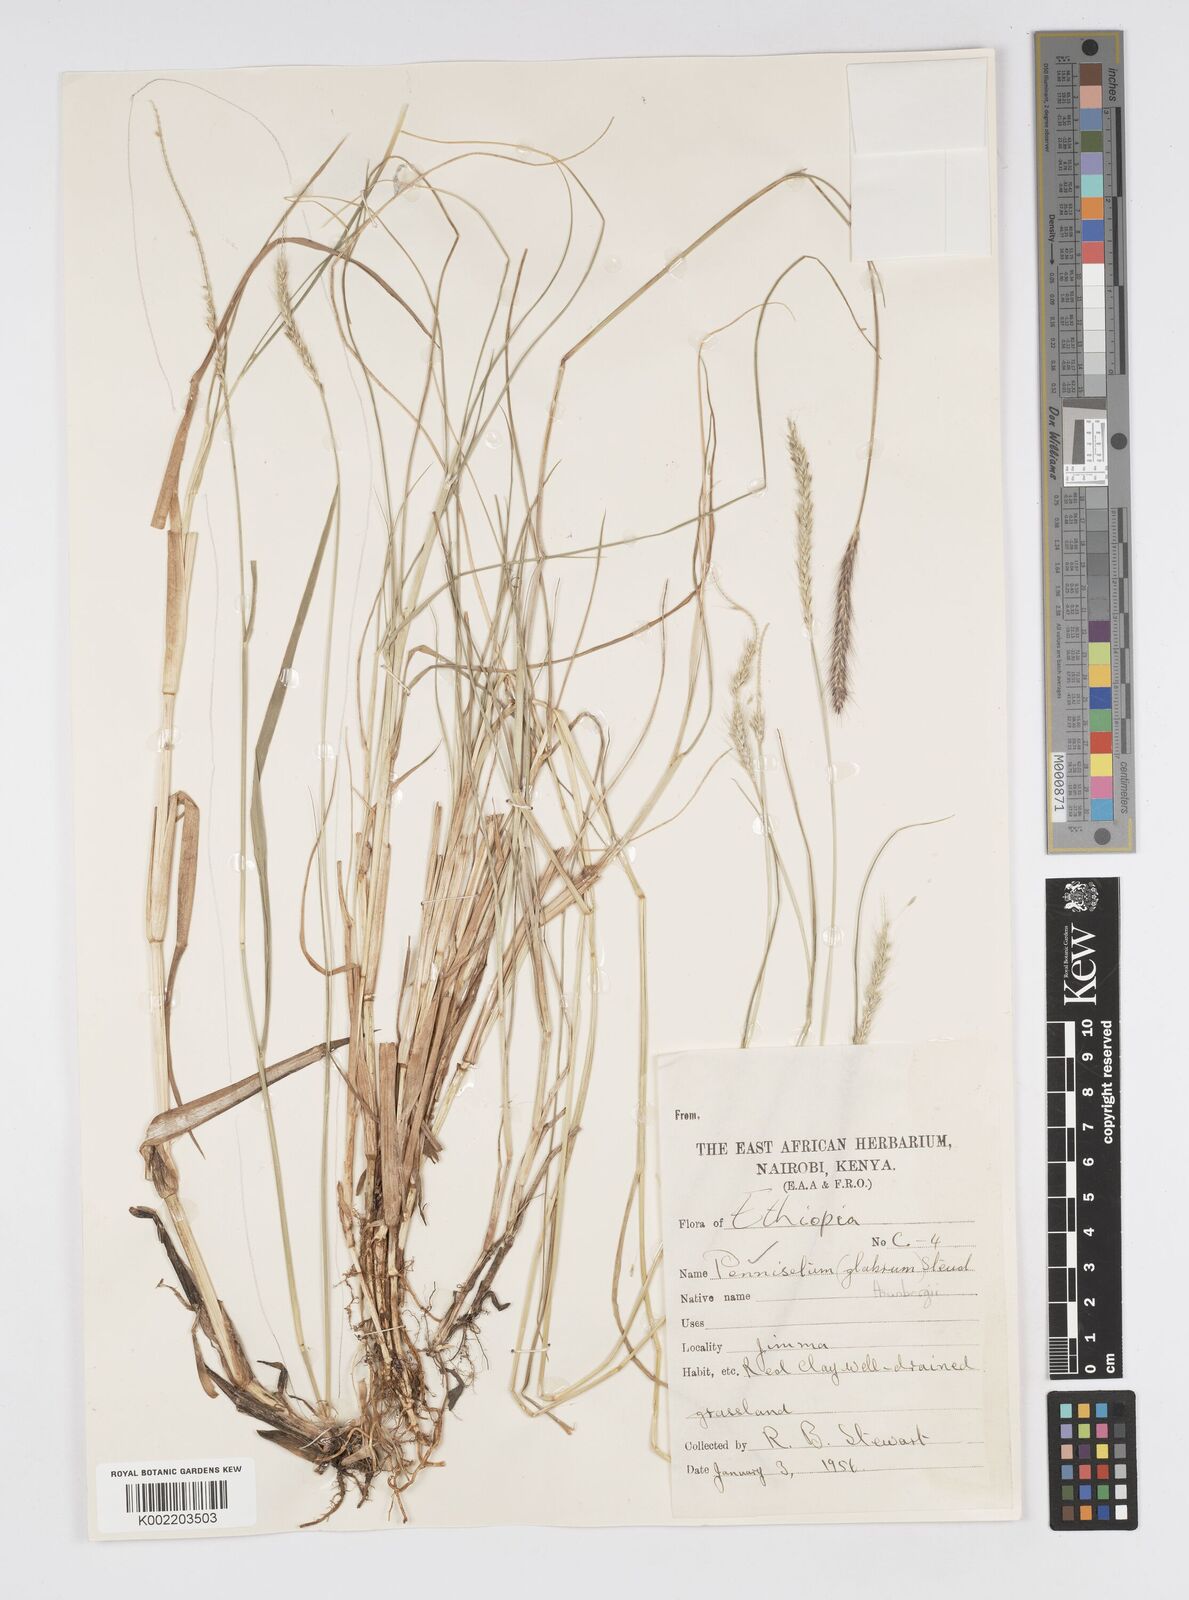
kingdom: Plantae
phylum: Tracheophyta
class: Liliopsida
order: Poales
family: Poaceae
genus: Cenchrus
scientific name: Cenchrus geniculatus
